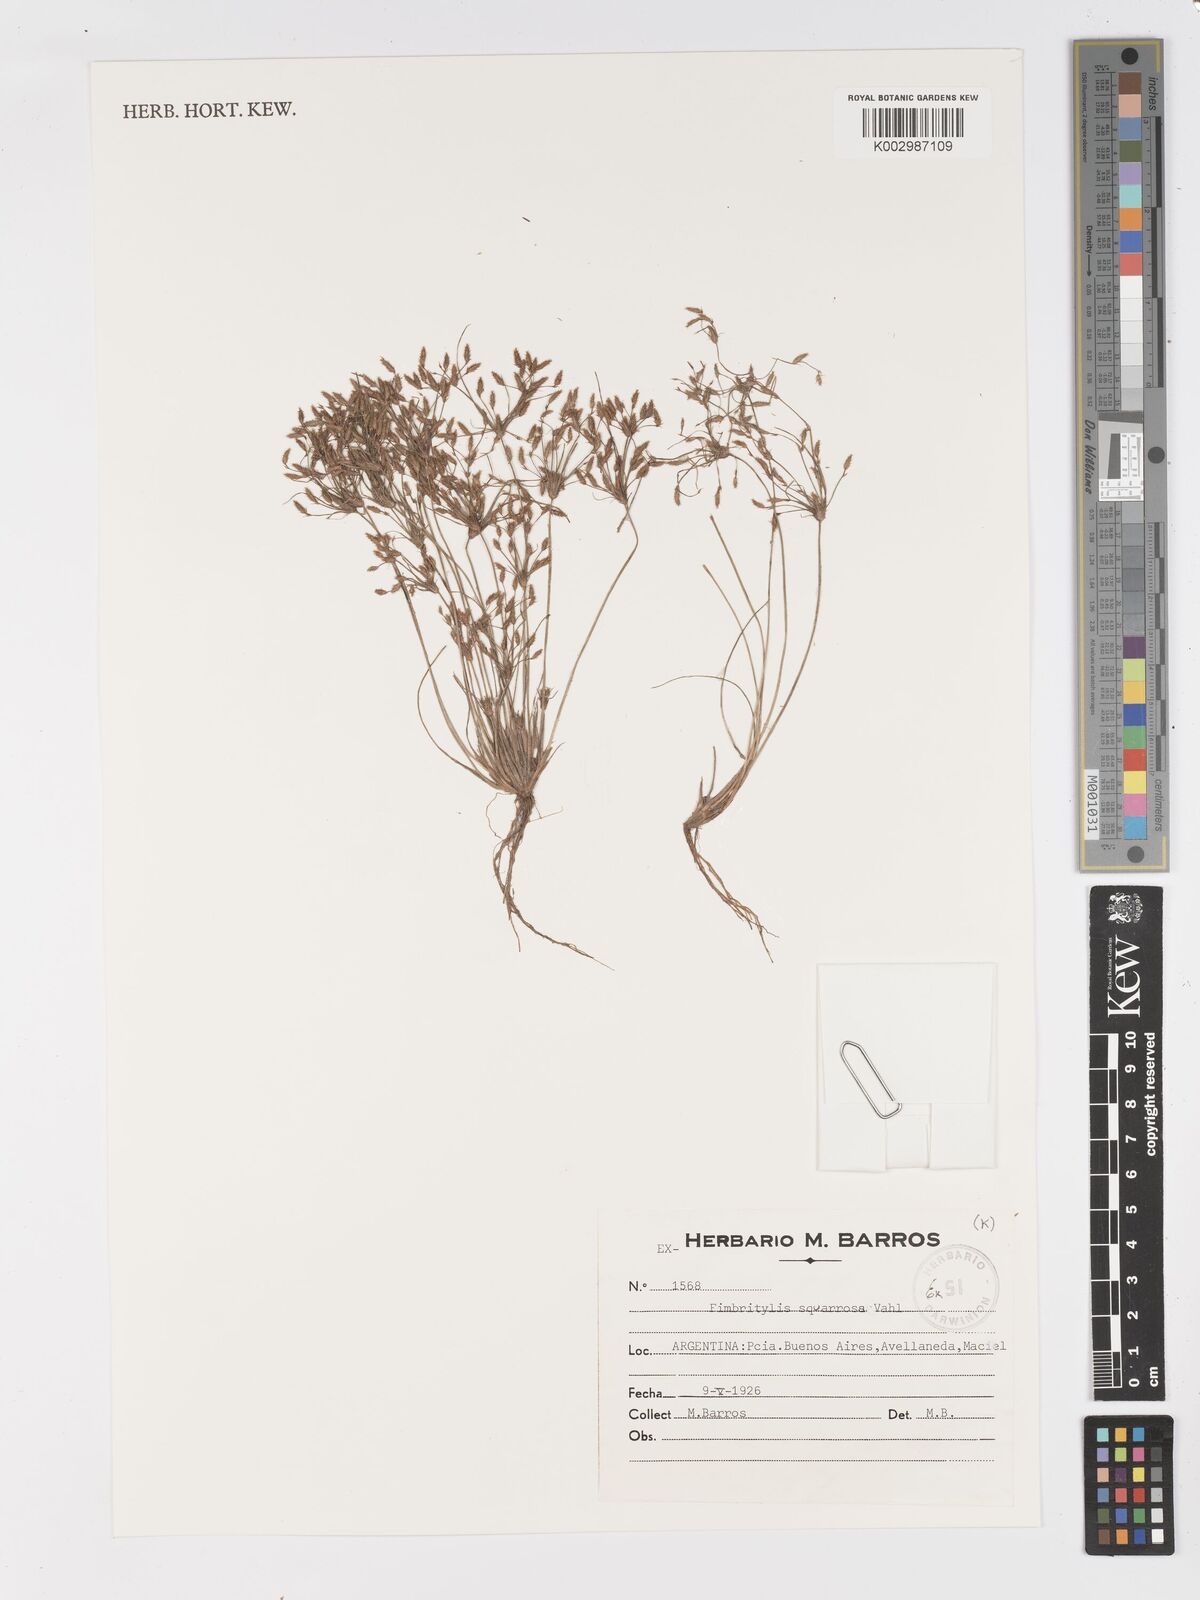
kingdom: Plantae
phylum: Tracheophyta
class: Liliopsida
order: Poales
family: Cyperaceae
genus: Fimbristylis
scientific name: Fimbristylis squarrosa
